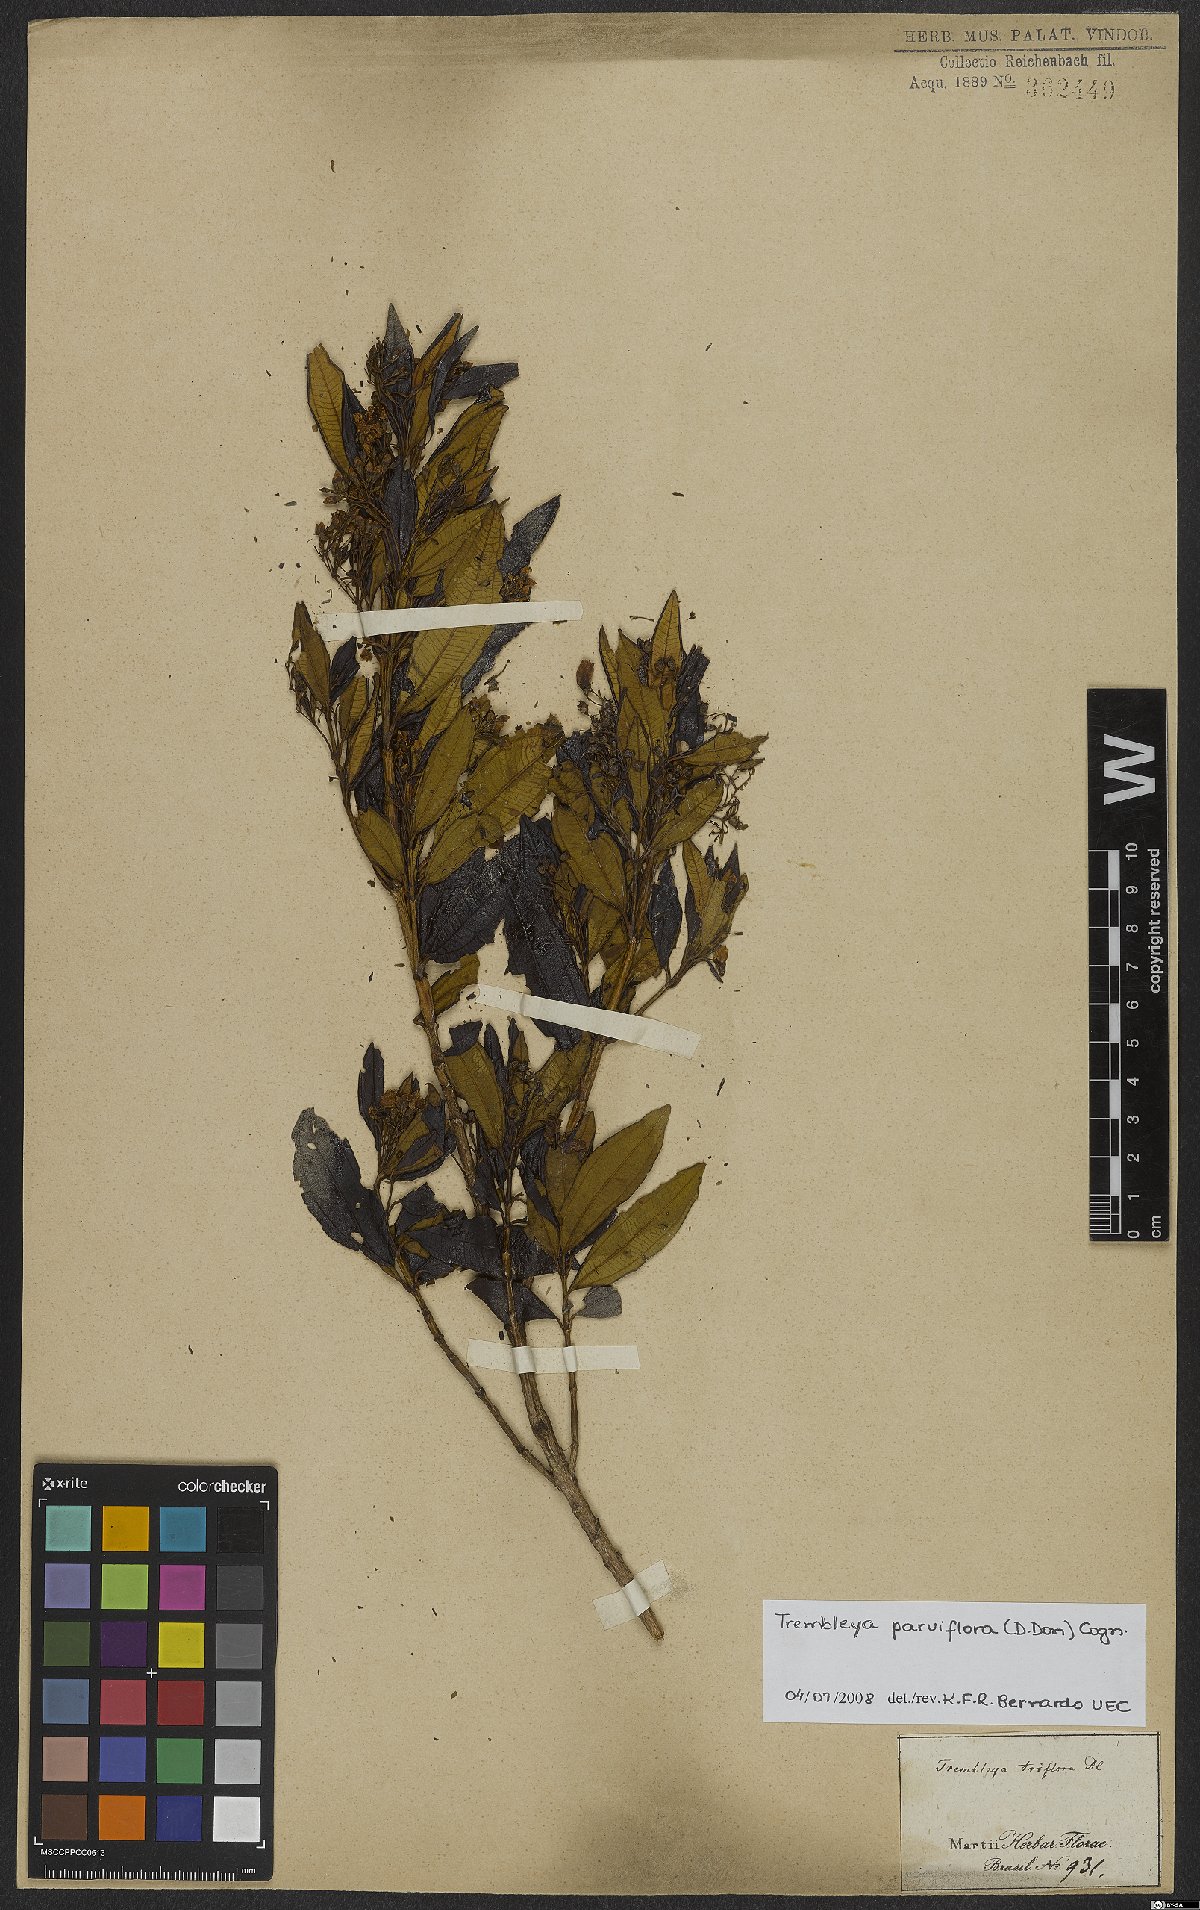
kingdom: Plantae
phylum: Tracheophyta
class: Magnoliopsida
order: Myrtales
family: Melastomataceae
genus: Microlicia
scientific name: Microlicia parviflora
